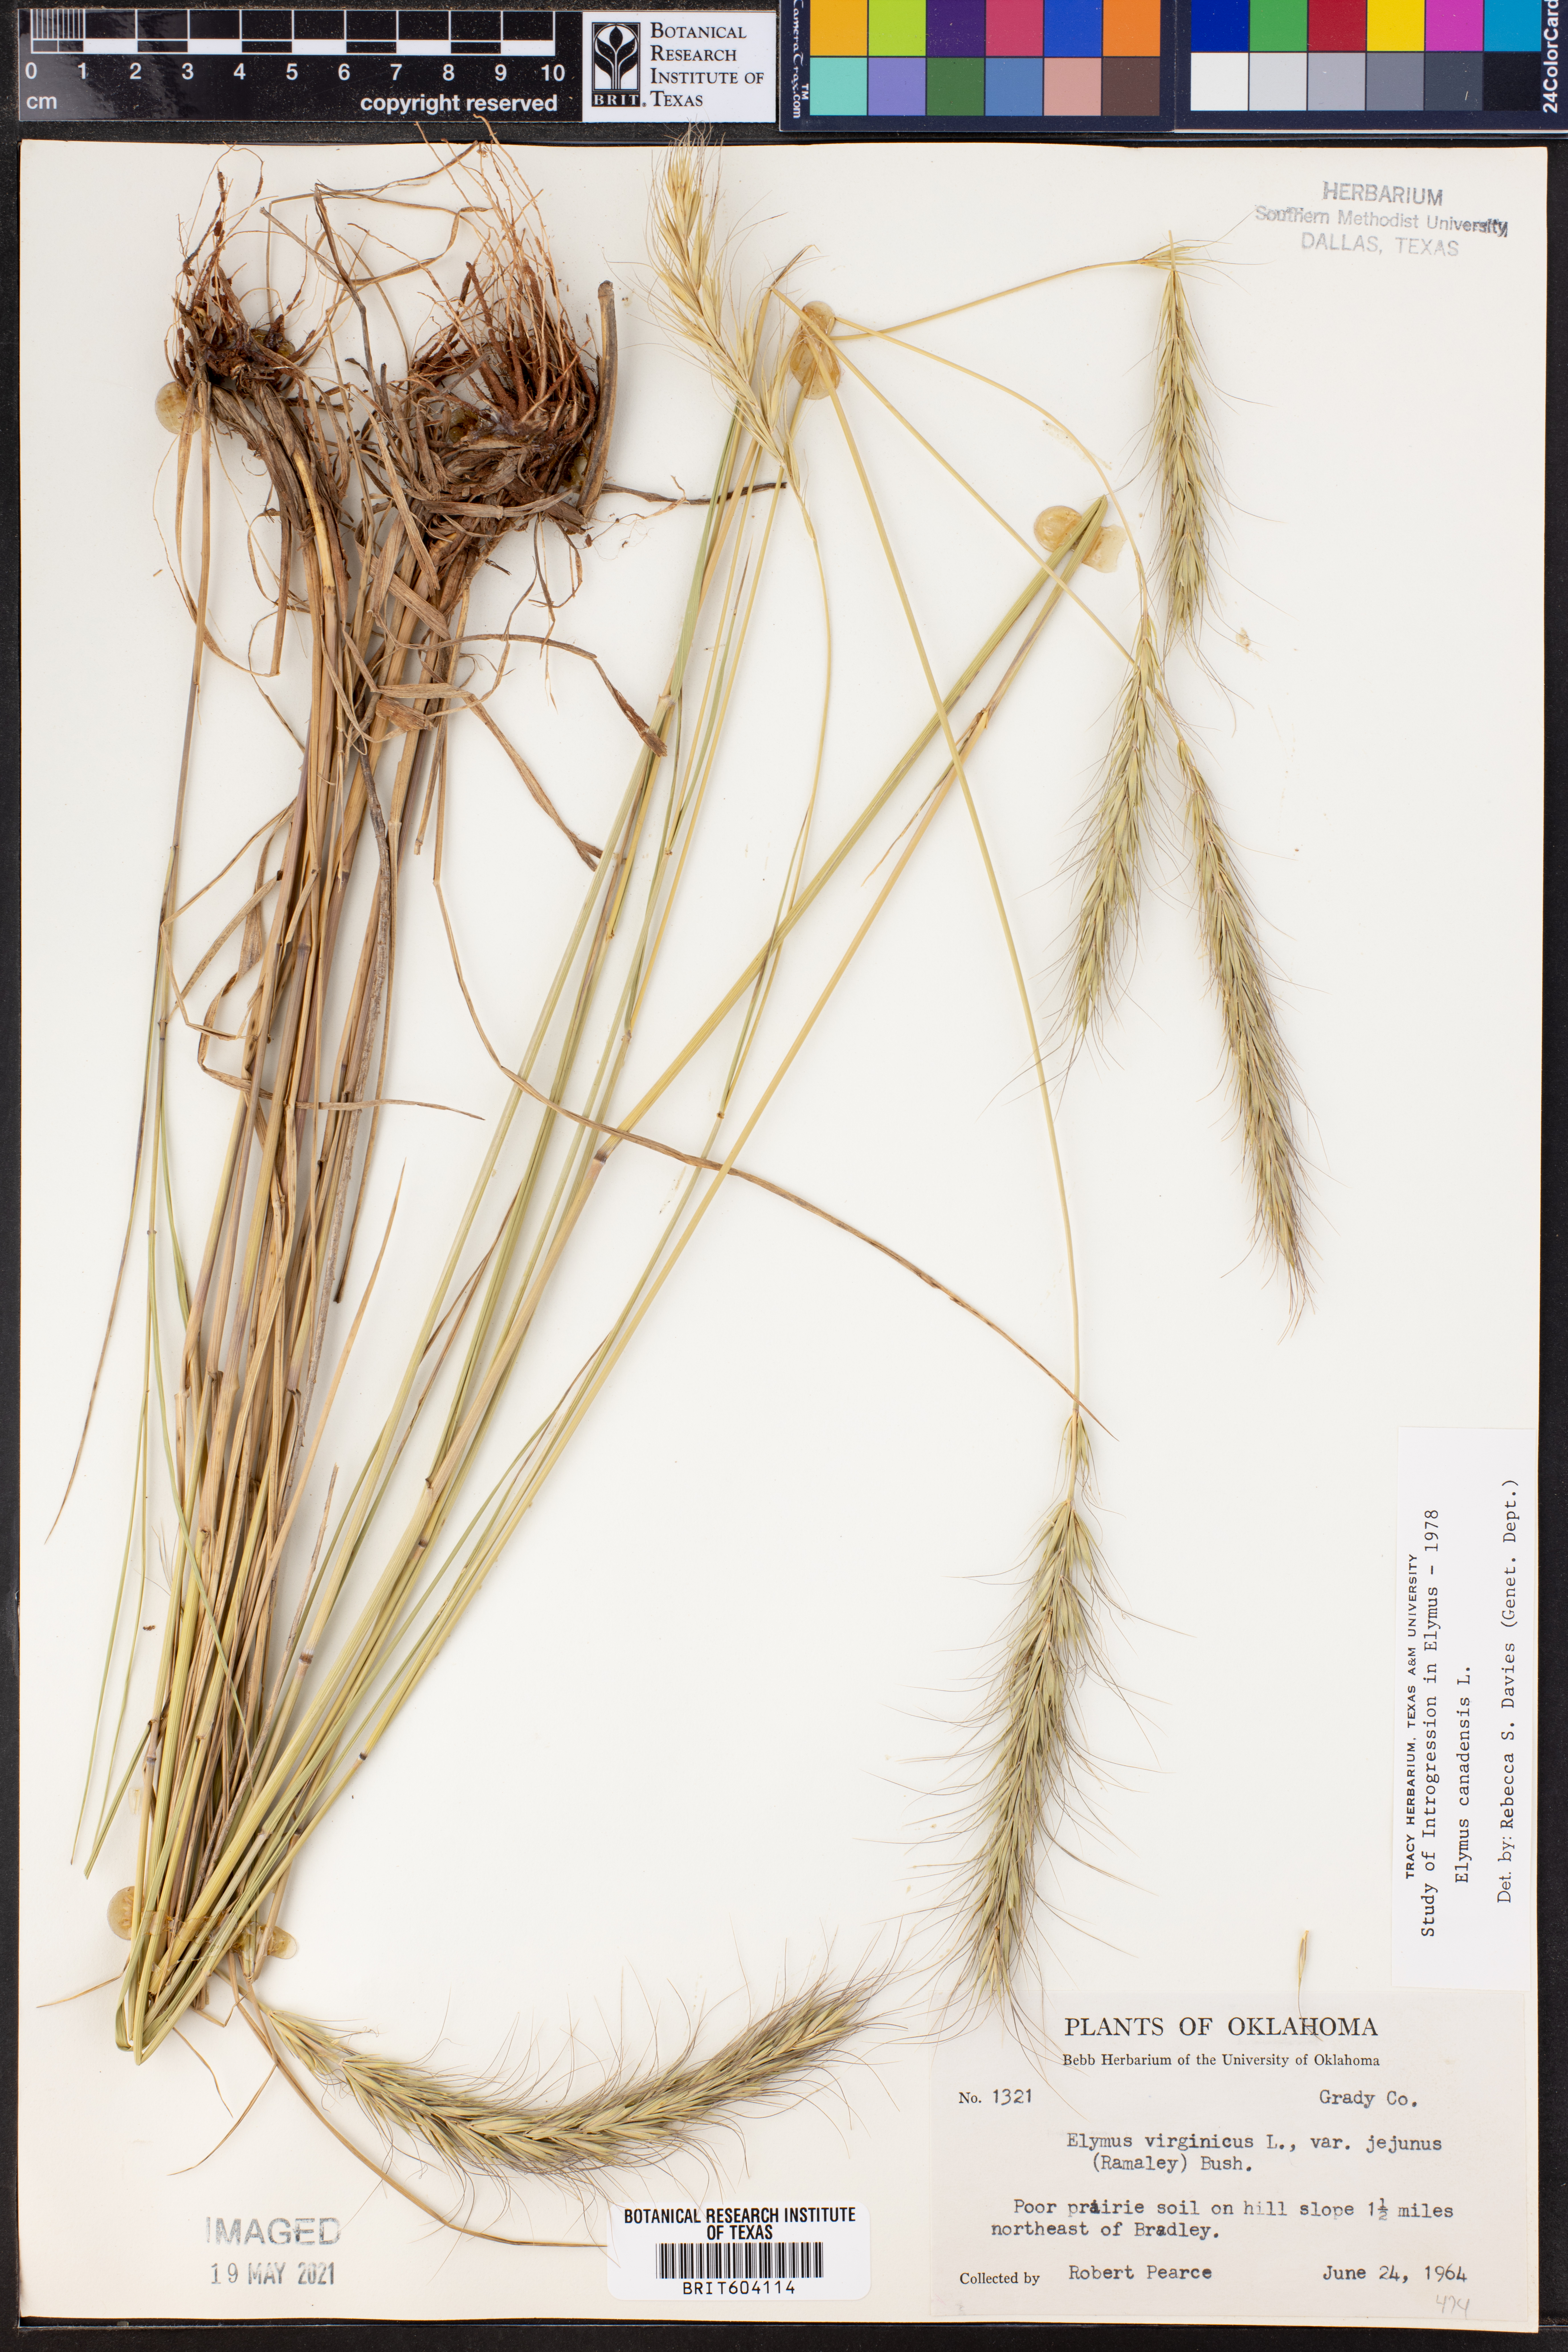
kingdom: Plantae
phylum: Tracheophyta
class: Liliopsida
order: Poales
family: Poaceae
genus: Elymus
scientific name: Elymus canadensis
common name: Canada wild rye
